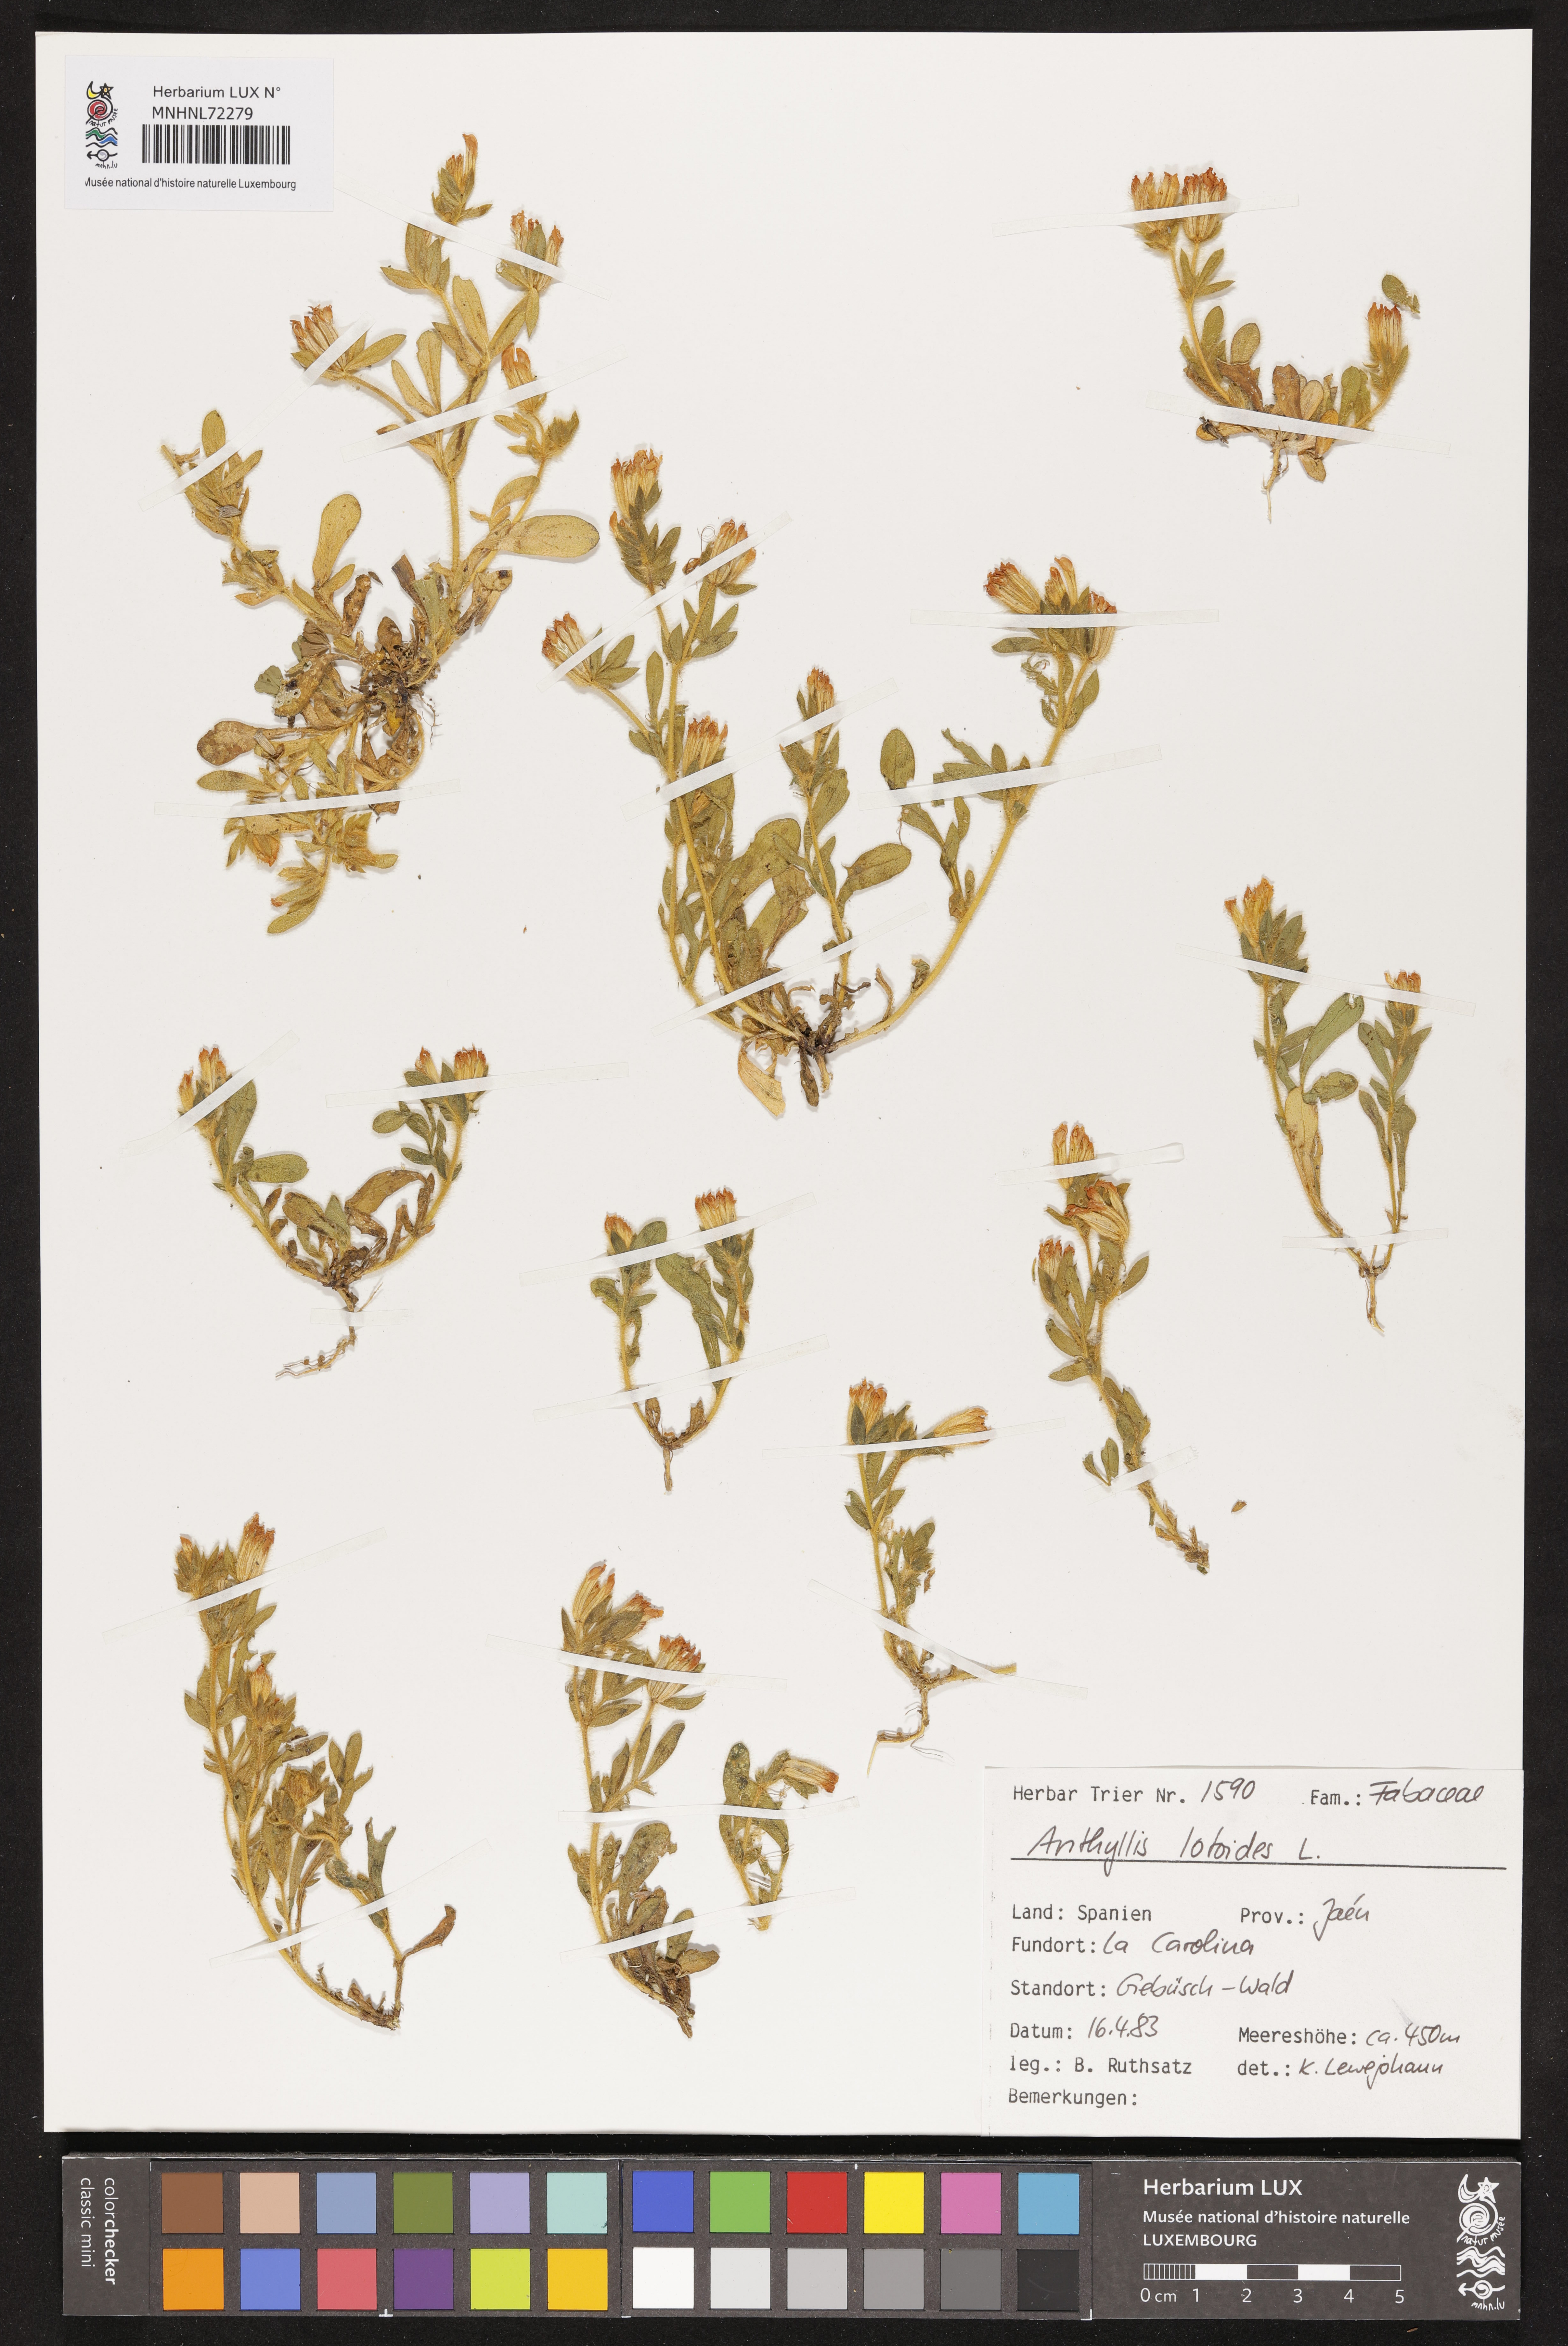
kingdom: Plantae
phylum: Tracheophyta
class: Magnoliopsida
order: Fabales
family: Fabaceae
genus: Anthyllis
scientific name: Anthyllis lotoides
